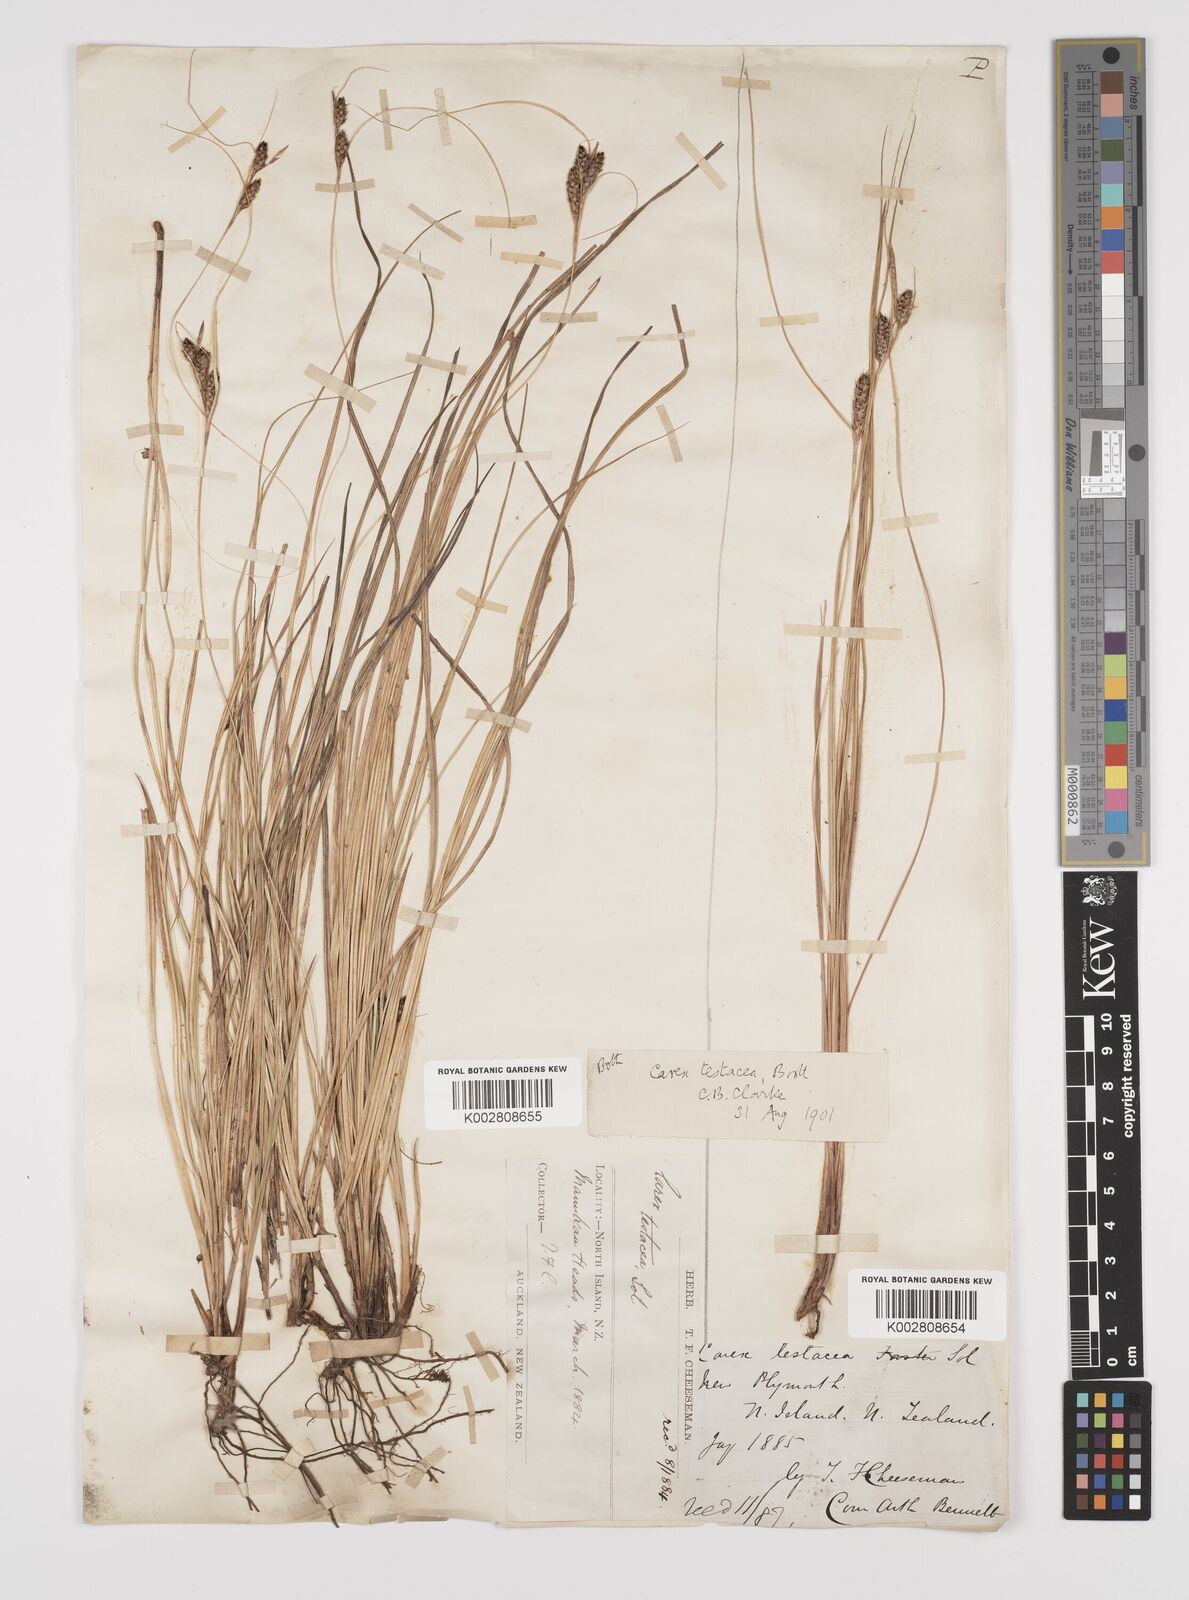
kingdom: Plantae
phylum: Tracheophyta
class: Liliopsida
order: Poales
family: Cyperaceae
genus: Carex
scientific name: Carex testacea
